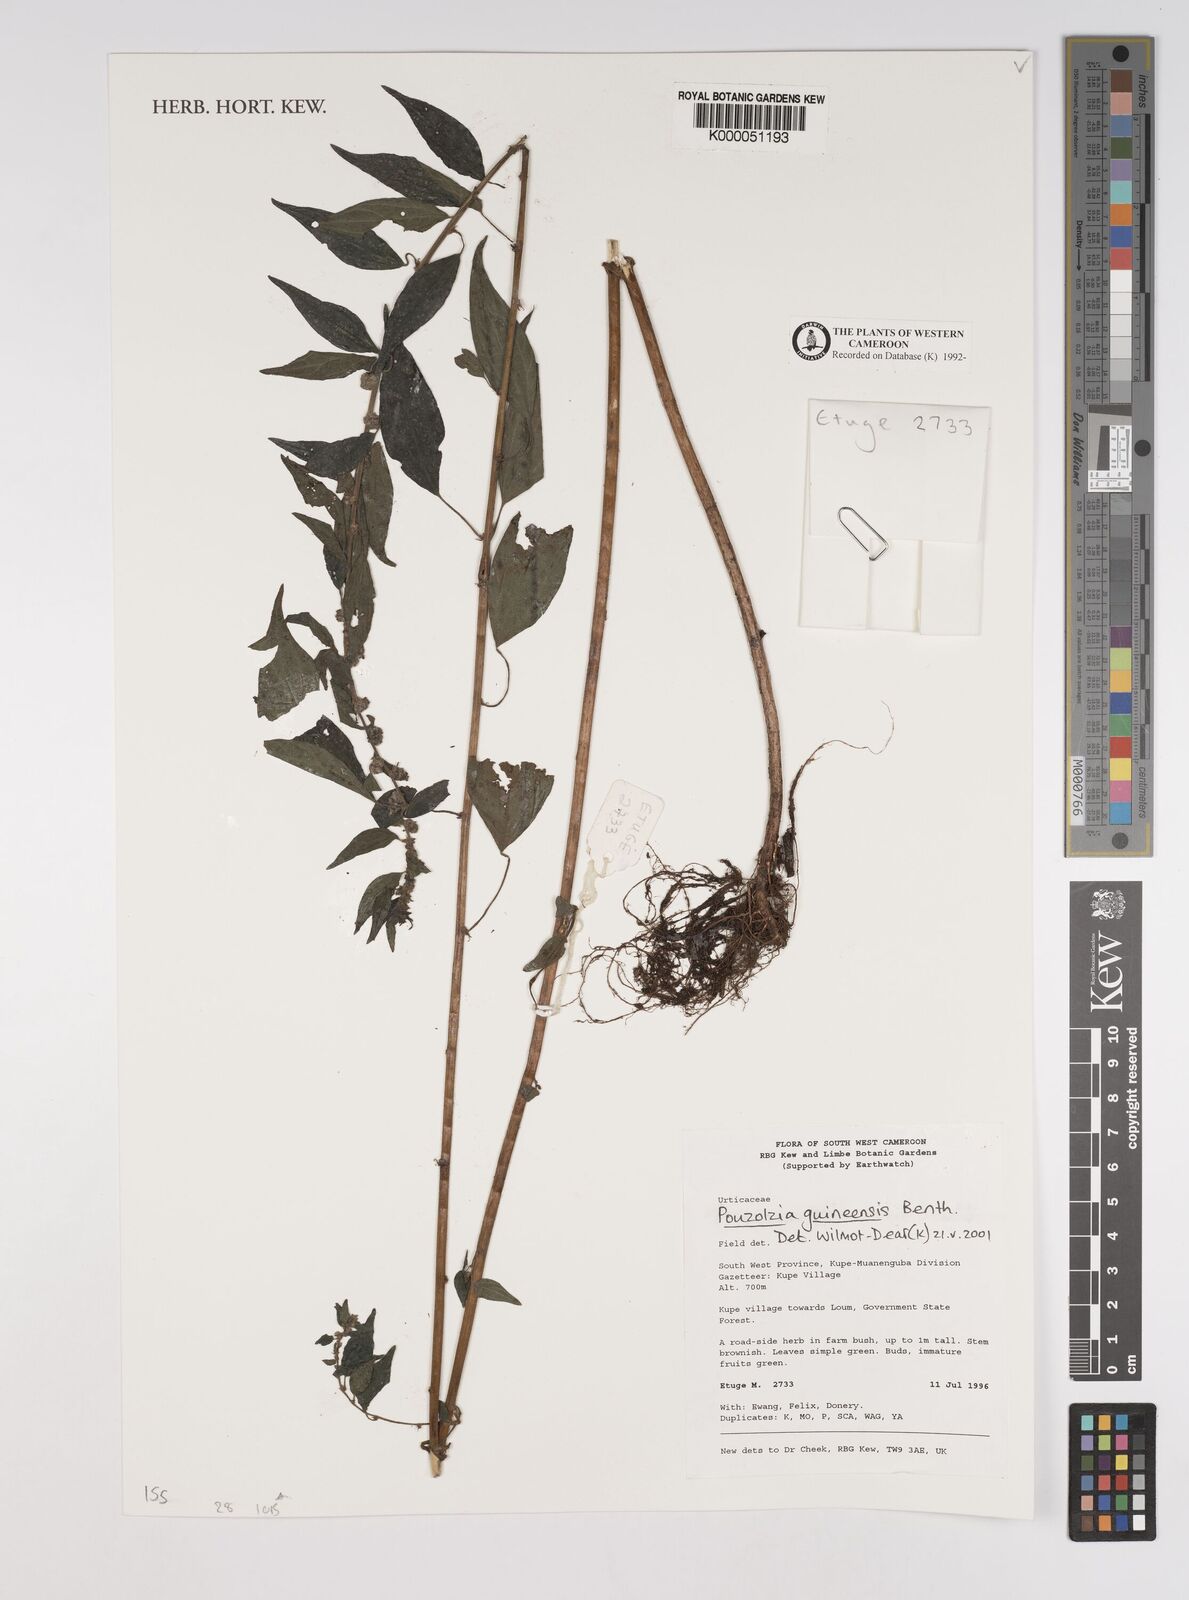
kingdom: Plantae
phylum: Tracheophyta
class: Magnoliopsida
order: Rosales
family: Urticaceae
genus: Pouzolzia
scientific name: Pouzolzia guineensis
